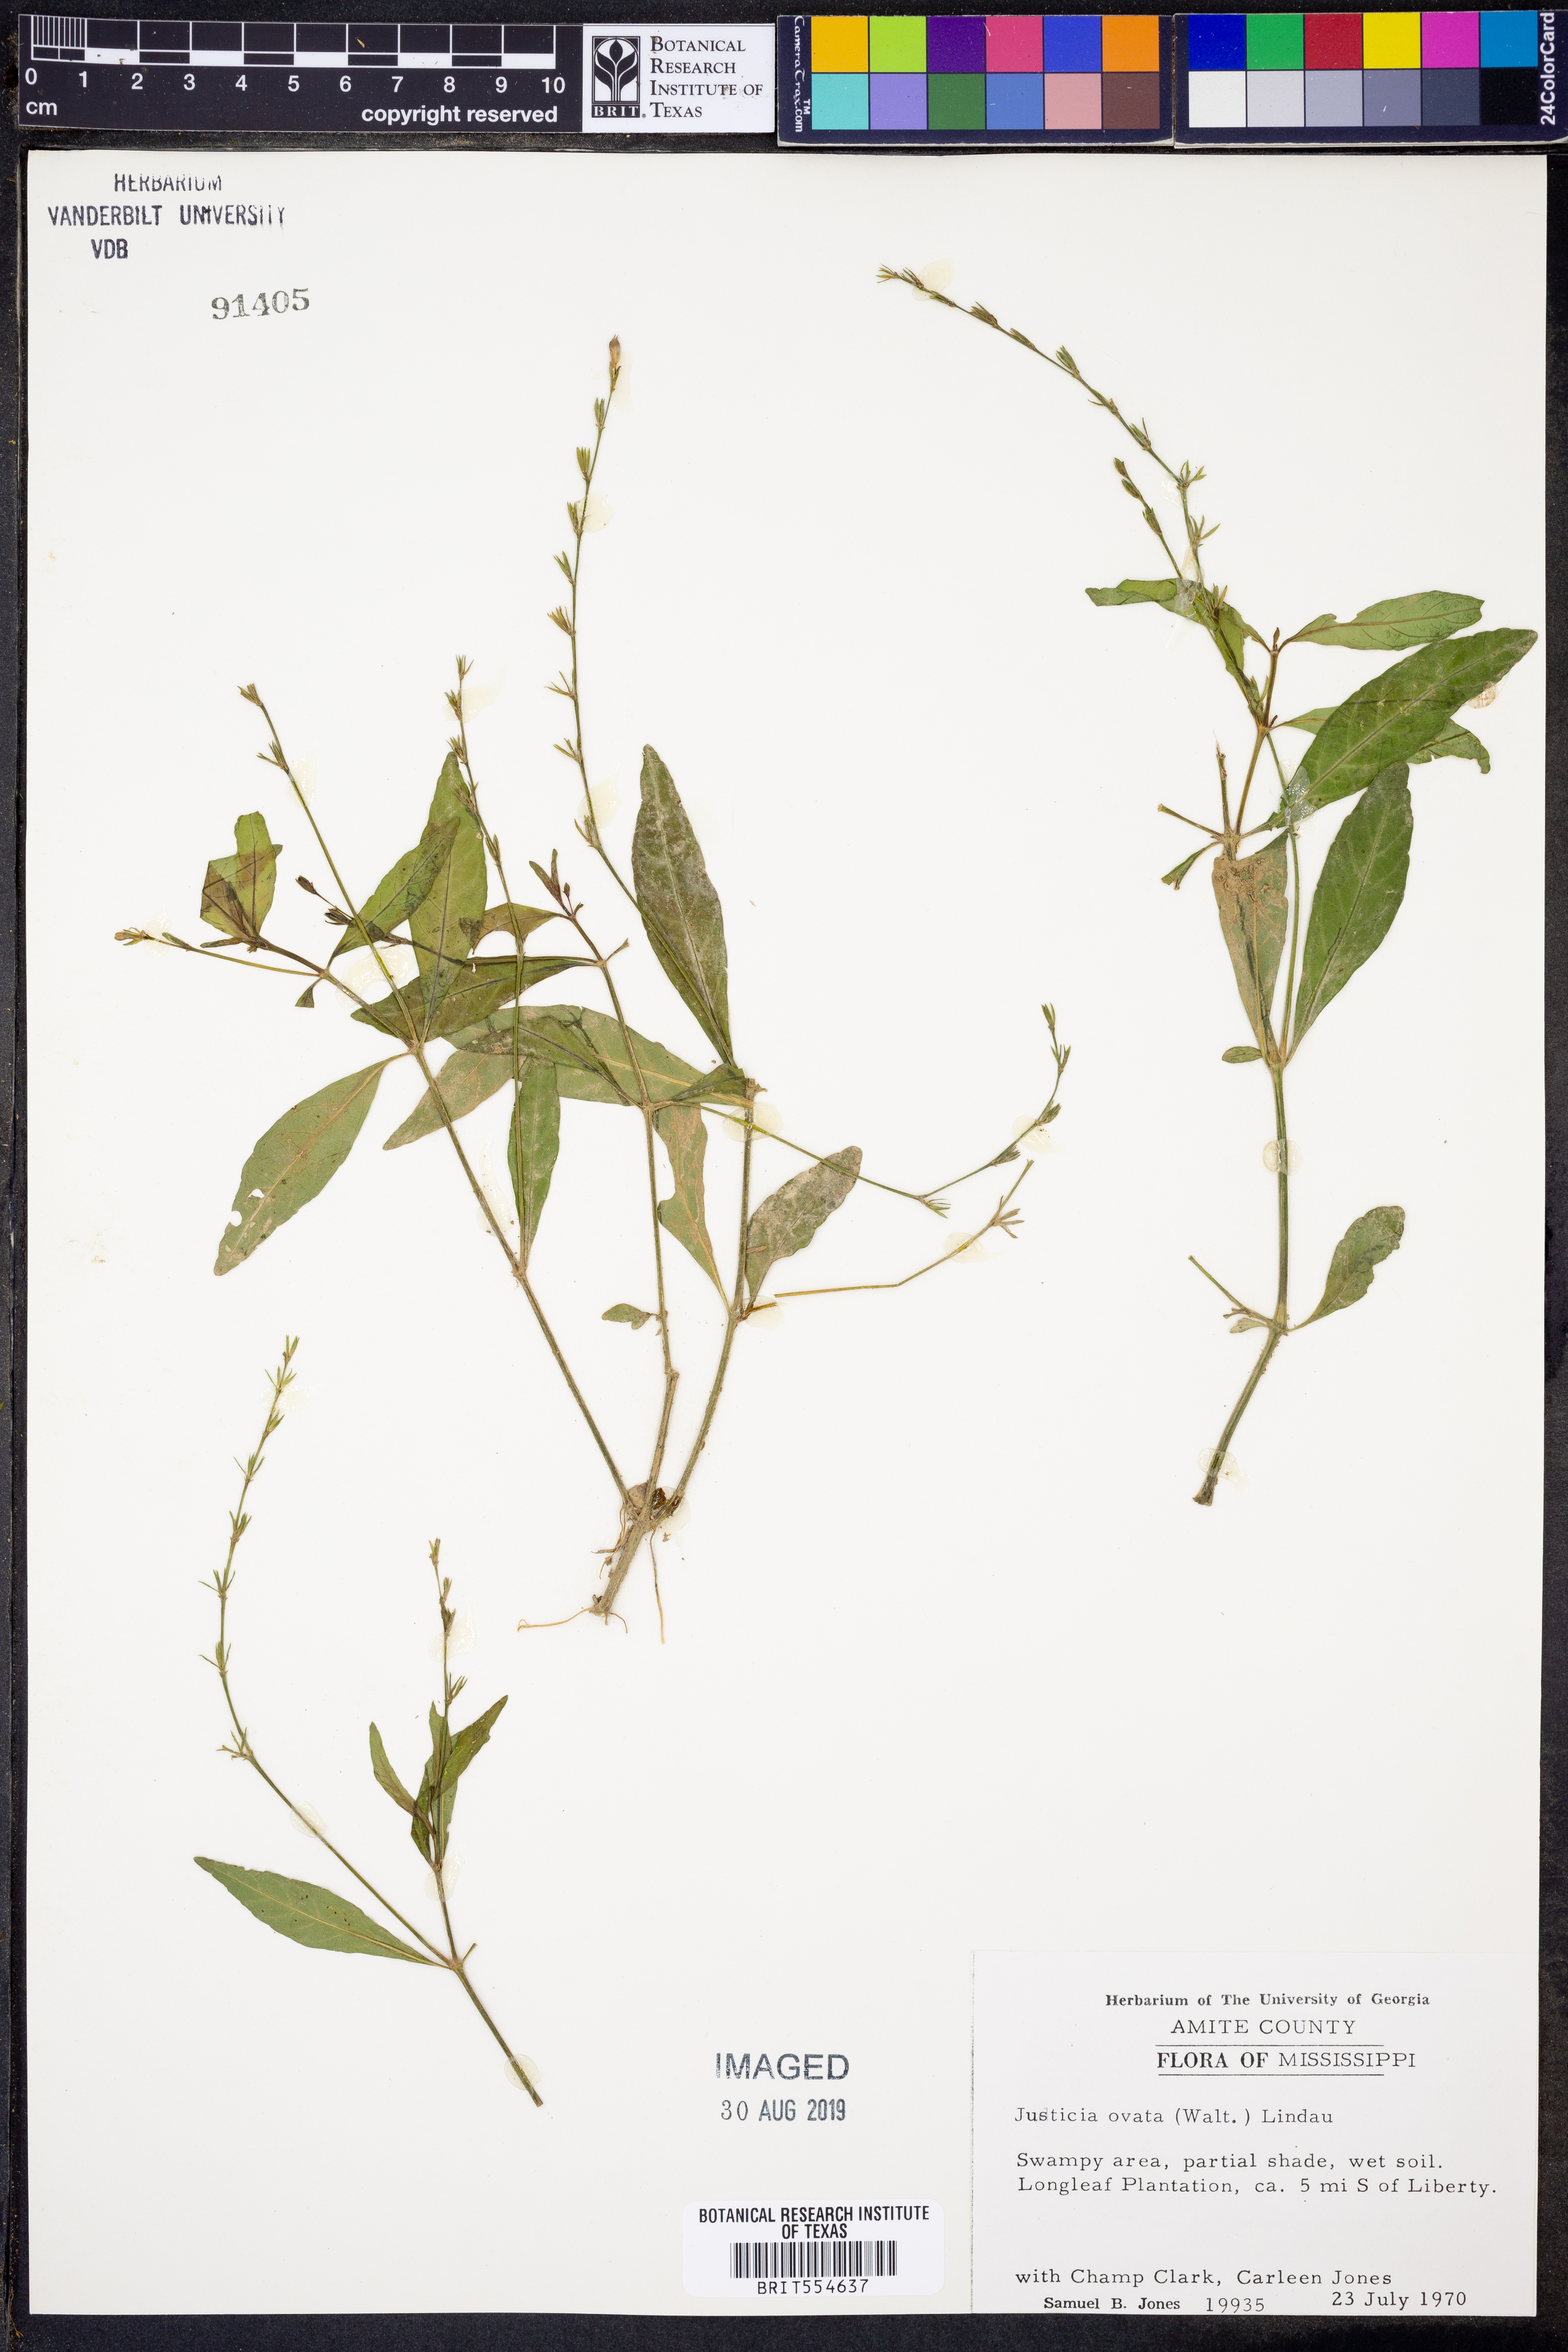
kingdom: Plantae
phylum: Tracheophyta
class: Magnoliopsida
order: Lamiales
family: Acanthaceae
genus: Dianthera
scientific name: Dianthera ovata
